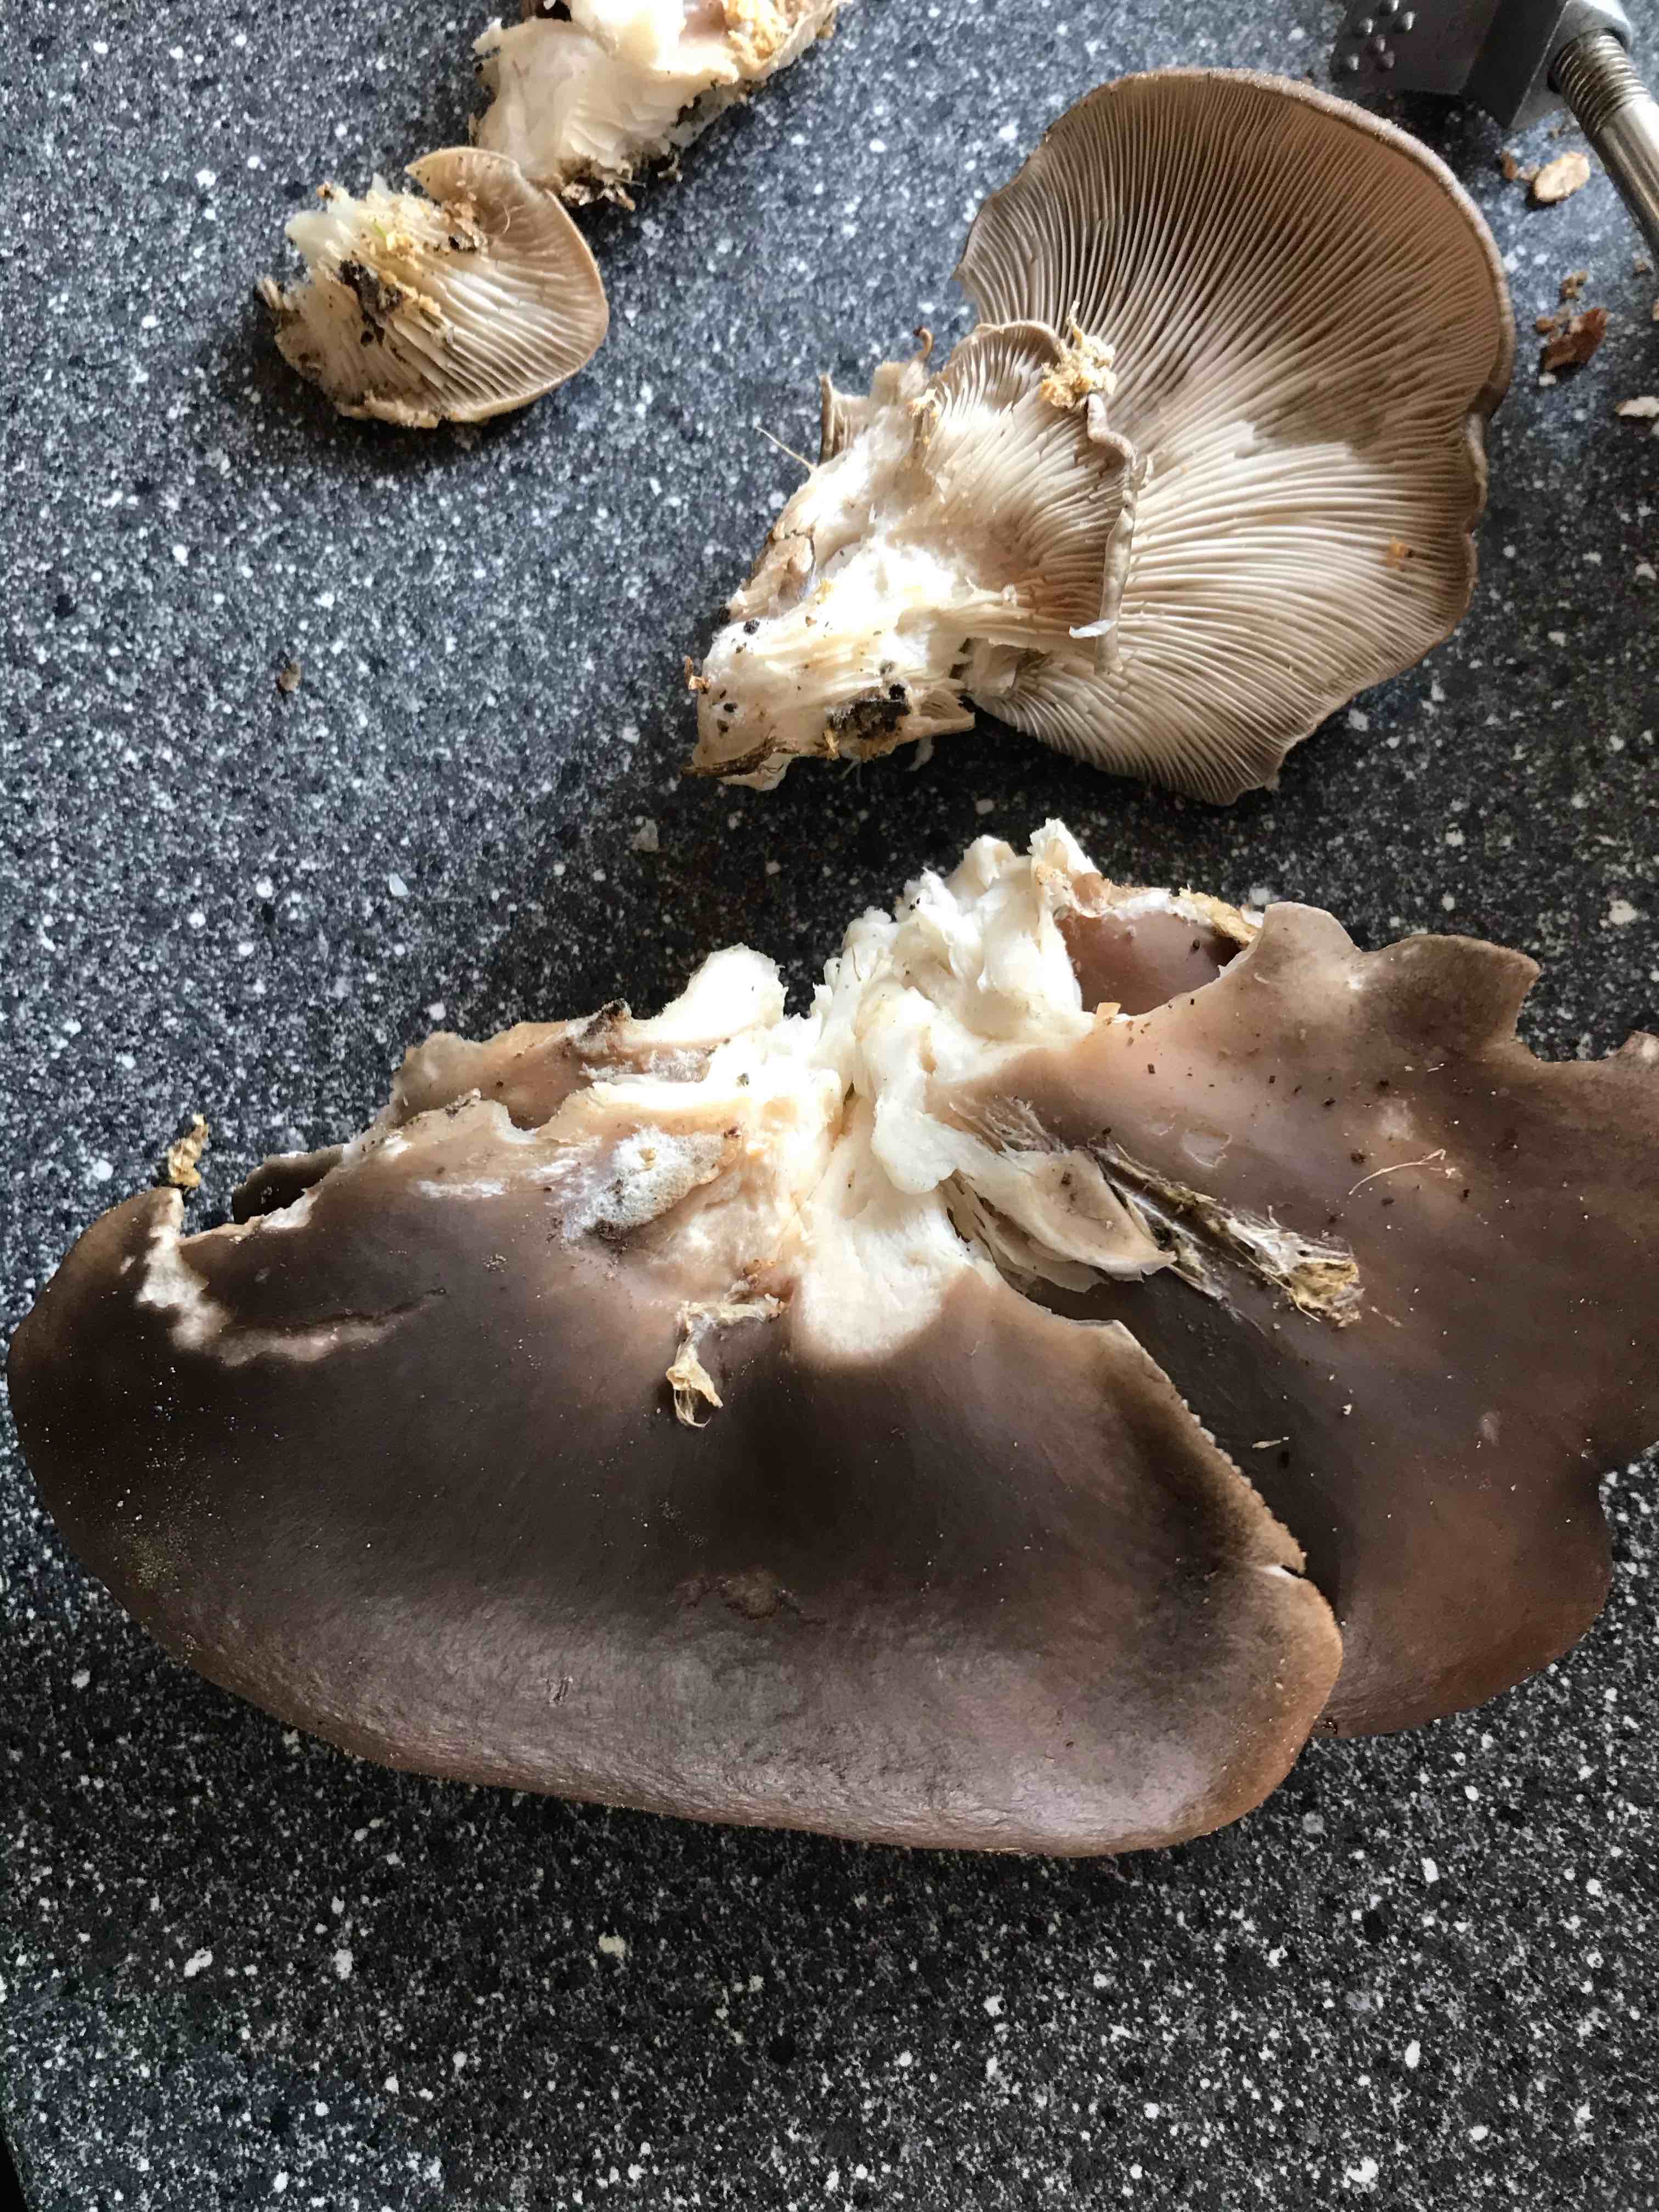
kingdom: Fungi
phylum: Basidiomycota
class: Agaricomycetes
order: Agaricales
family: Pleurotaceae
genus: Pleurotus
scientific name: Pleurotus ostreatus
